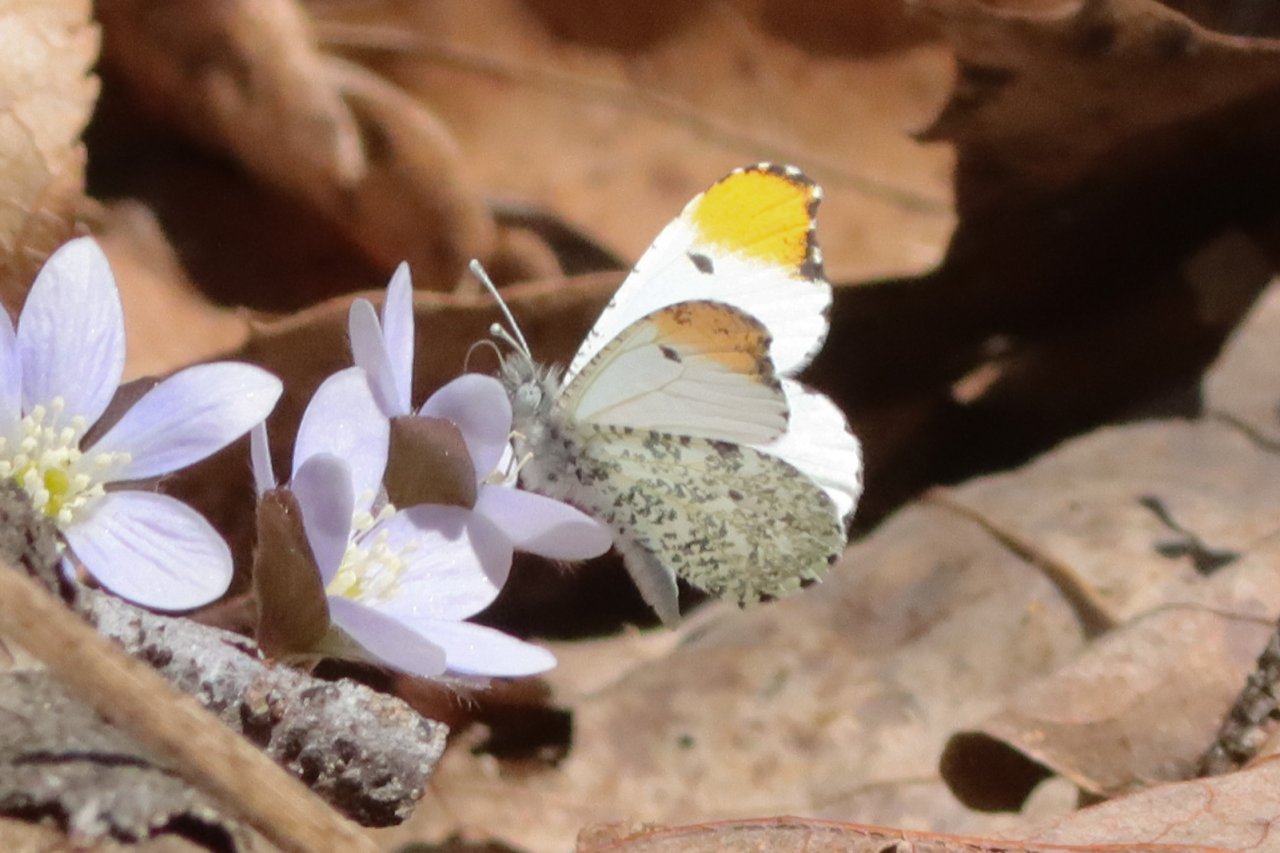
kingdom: Animalia
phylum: Arthropoda
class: Insecta
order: Lepidoptera
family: Pieridae
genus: Anthocharis
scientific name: Anthocharis midea
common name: Falcate Orangetip
